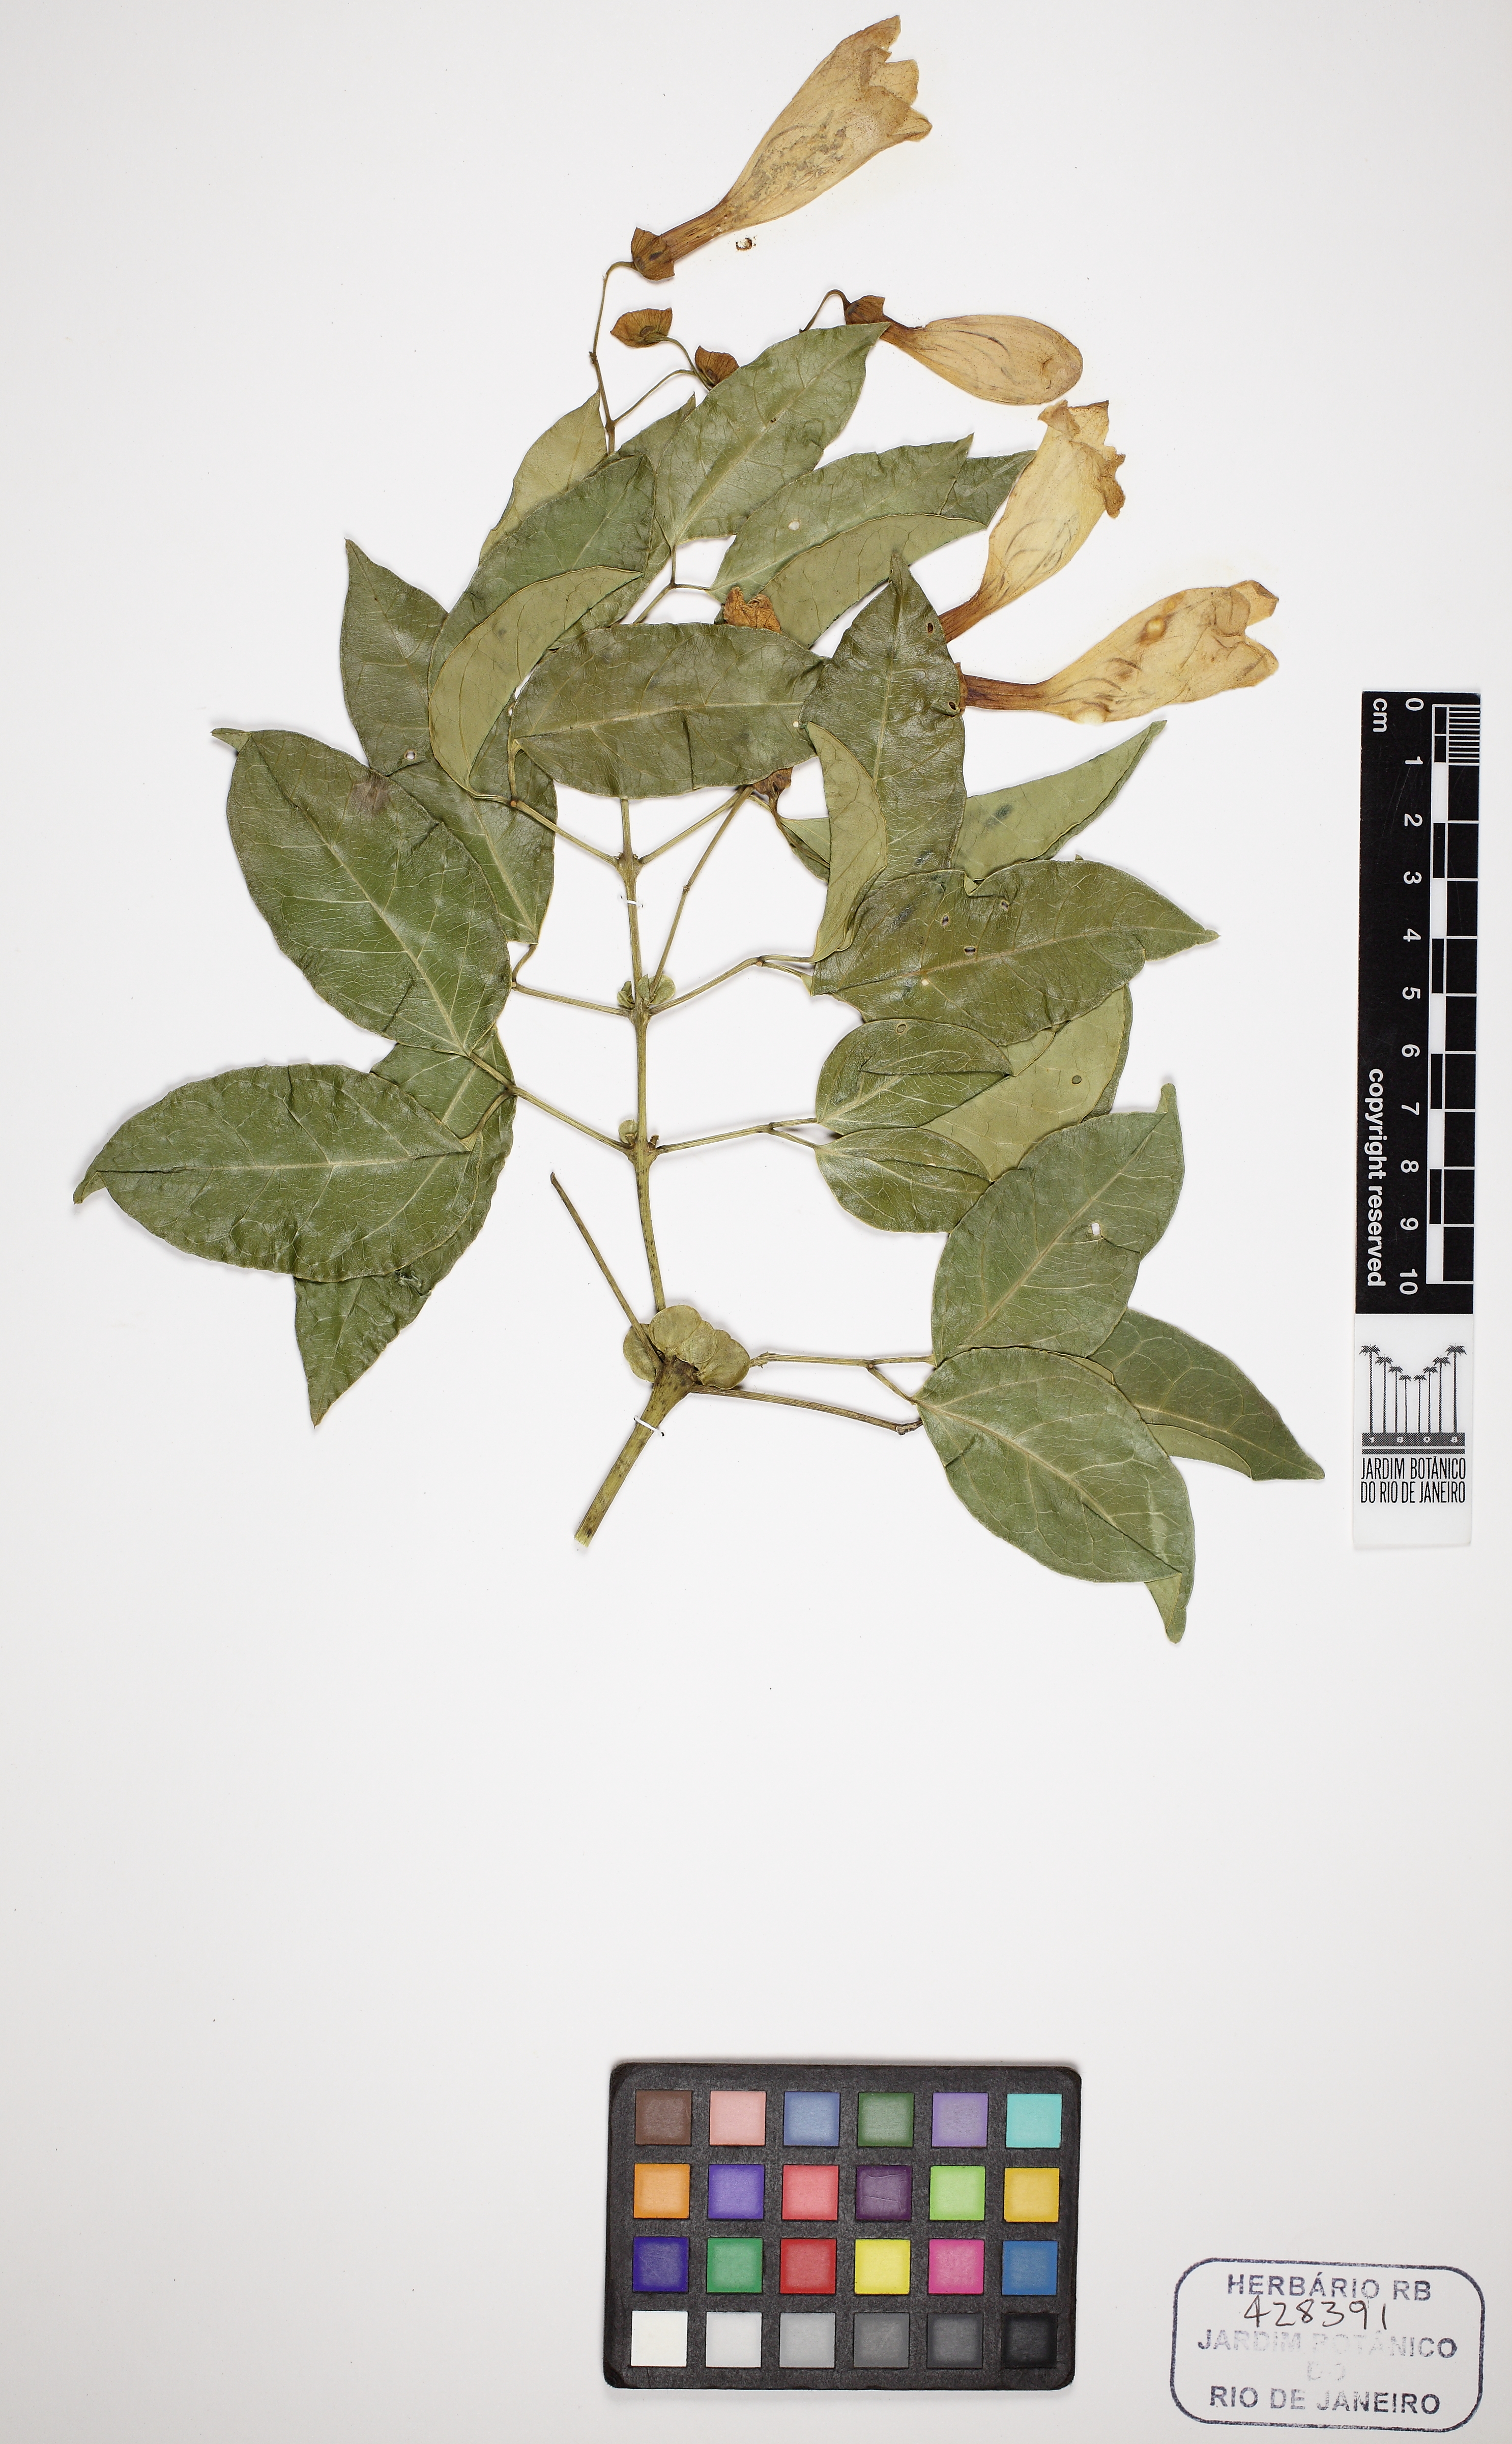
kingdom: Plantae
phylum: Tracheophyta
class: Magnoliopsida
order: Lamiales
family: Bignoniaceae
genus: Anemopaegma
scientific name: Anemopaegma chamberlaynii
